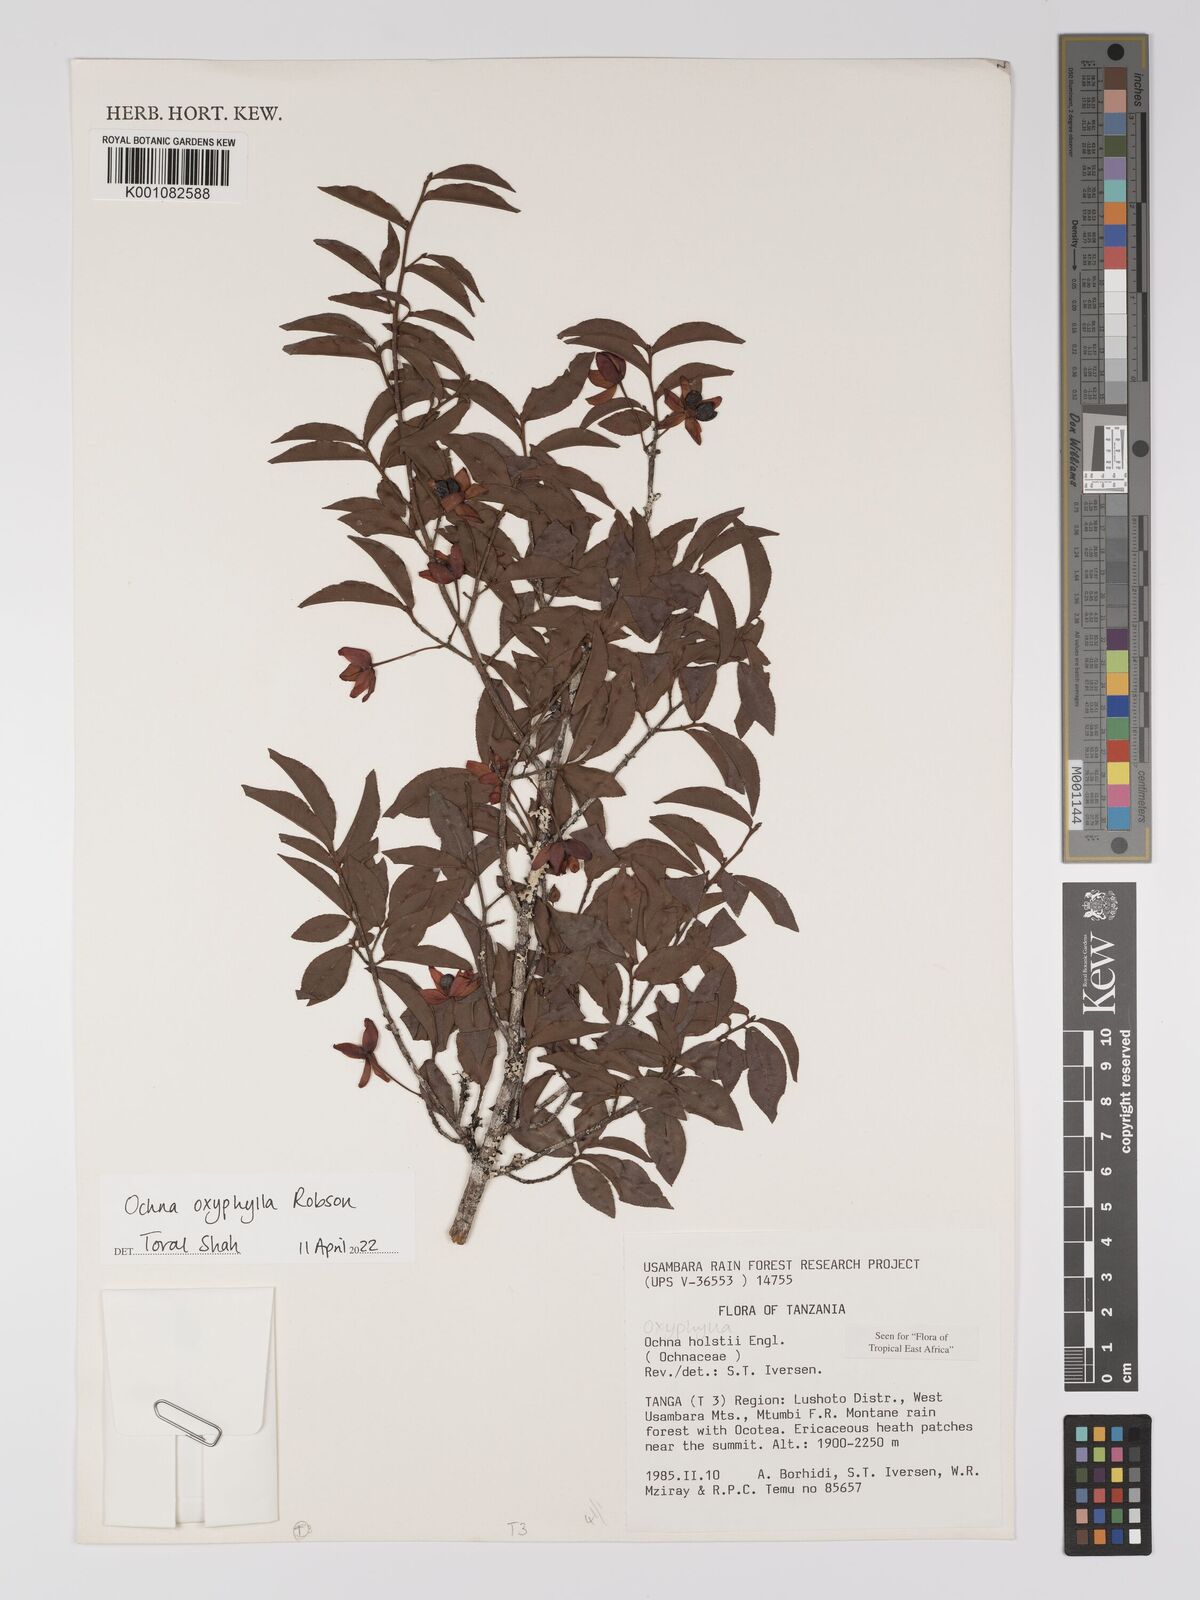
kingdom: Plantae
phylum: Tracheophyta
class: Magnoliopsida
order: Malpighiales
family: Ochnaceae
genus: Ochna
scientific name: Ochna oxyphylla
